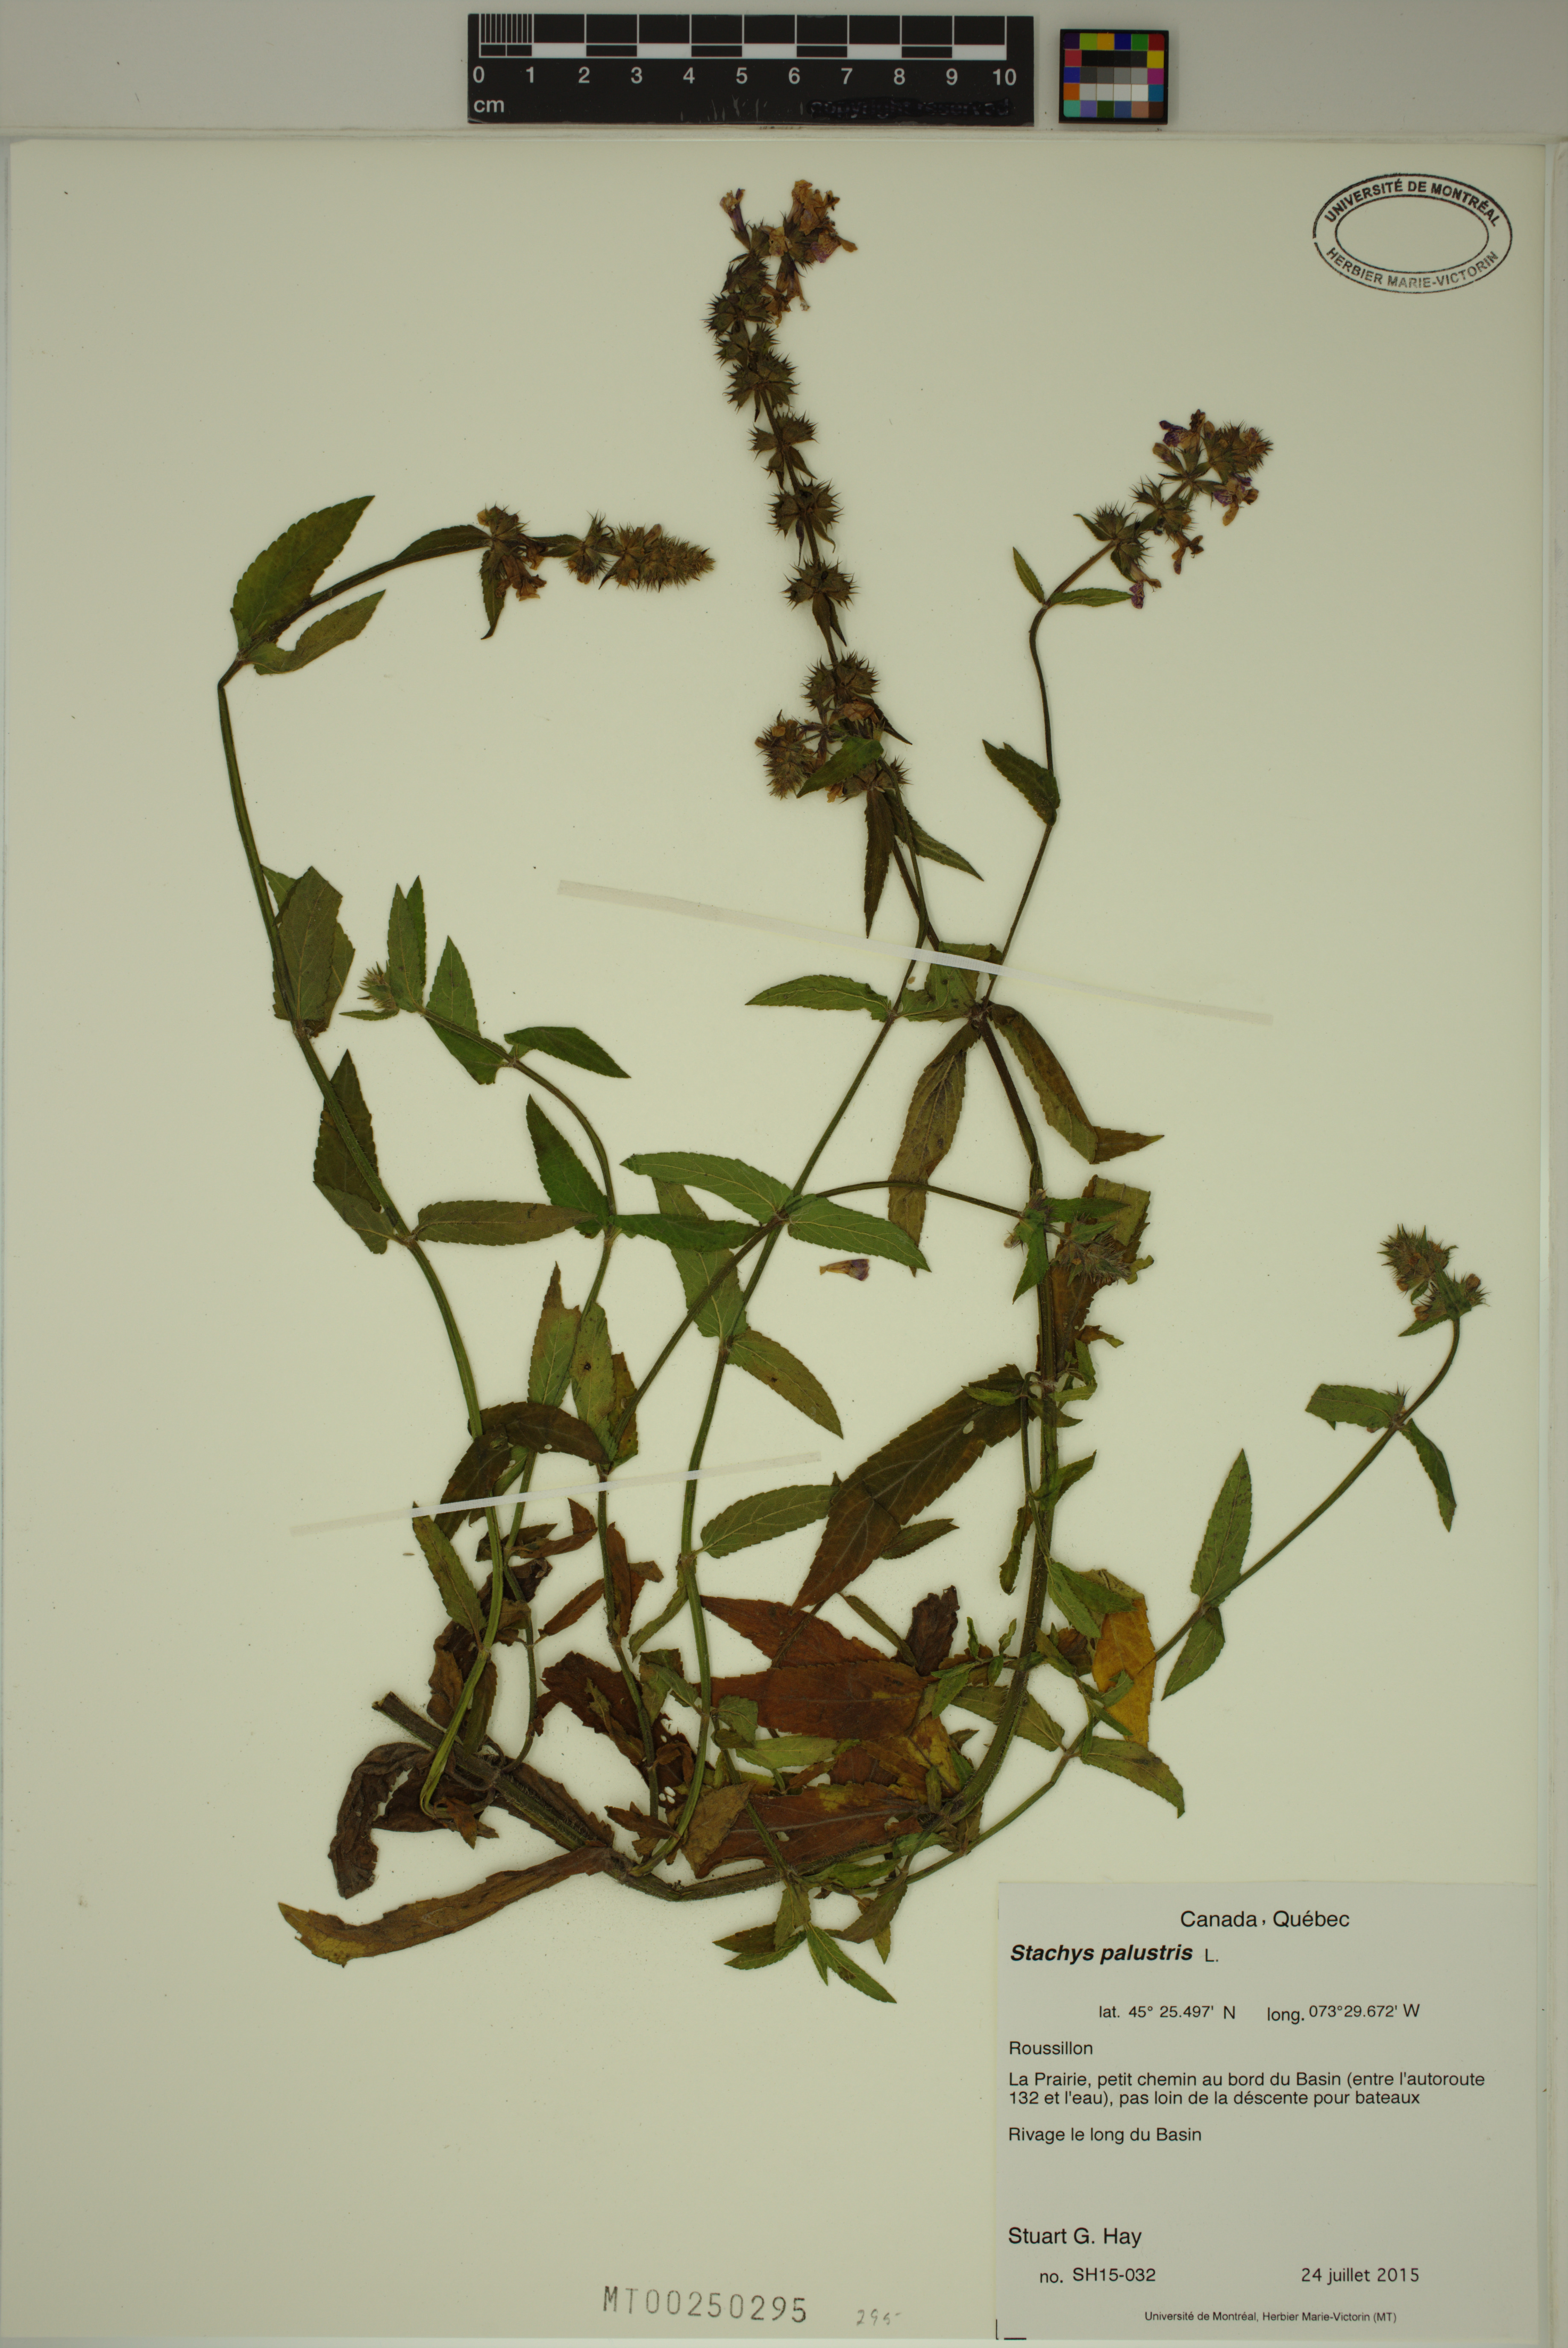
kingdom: Plantae
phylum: Tracheophyta
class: Magnoliopsida
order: Lamiales
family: Lamiaceae
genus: Stachys
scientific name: Stachys palustris
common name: Marsh woundwort
